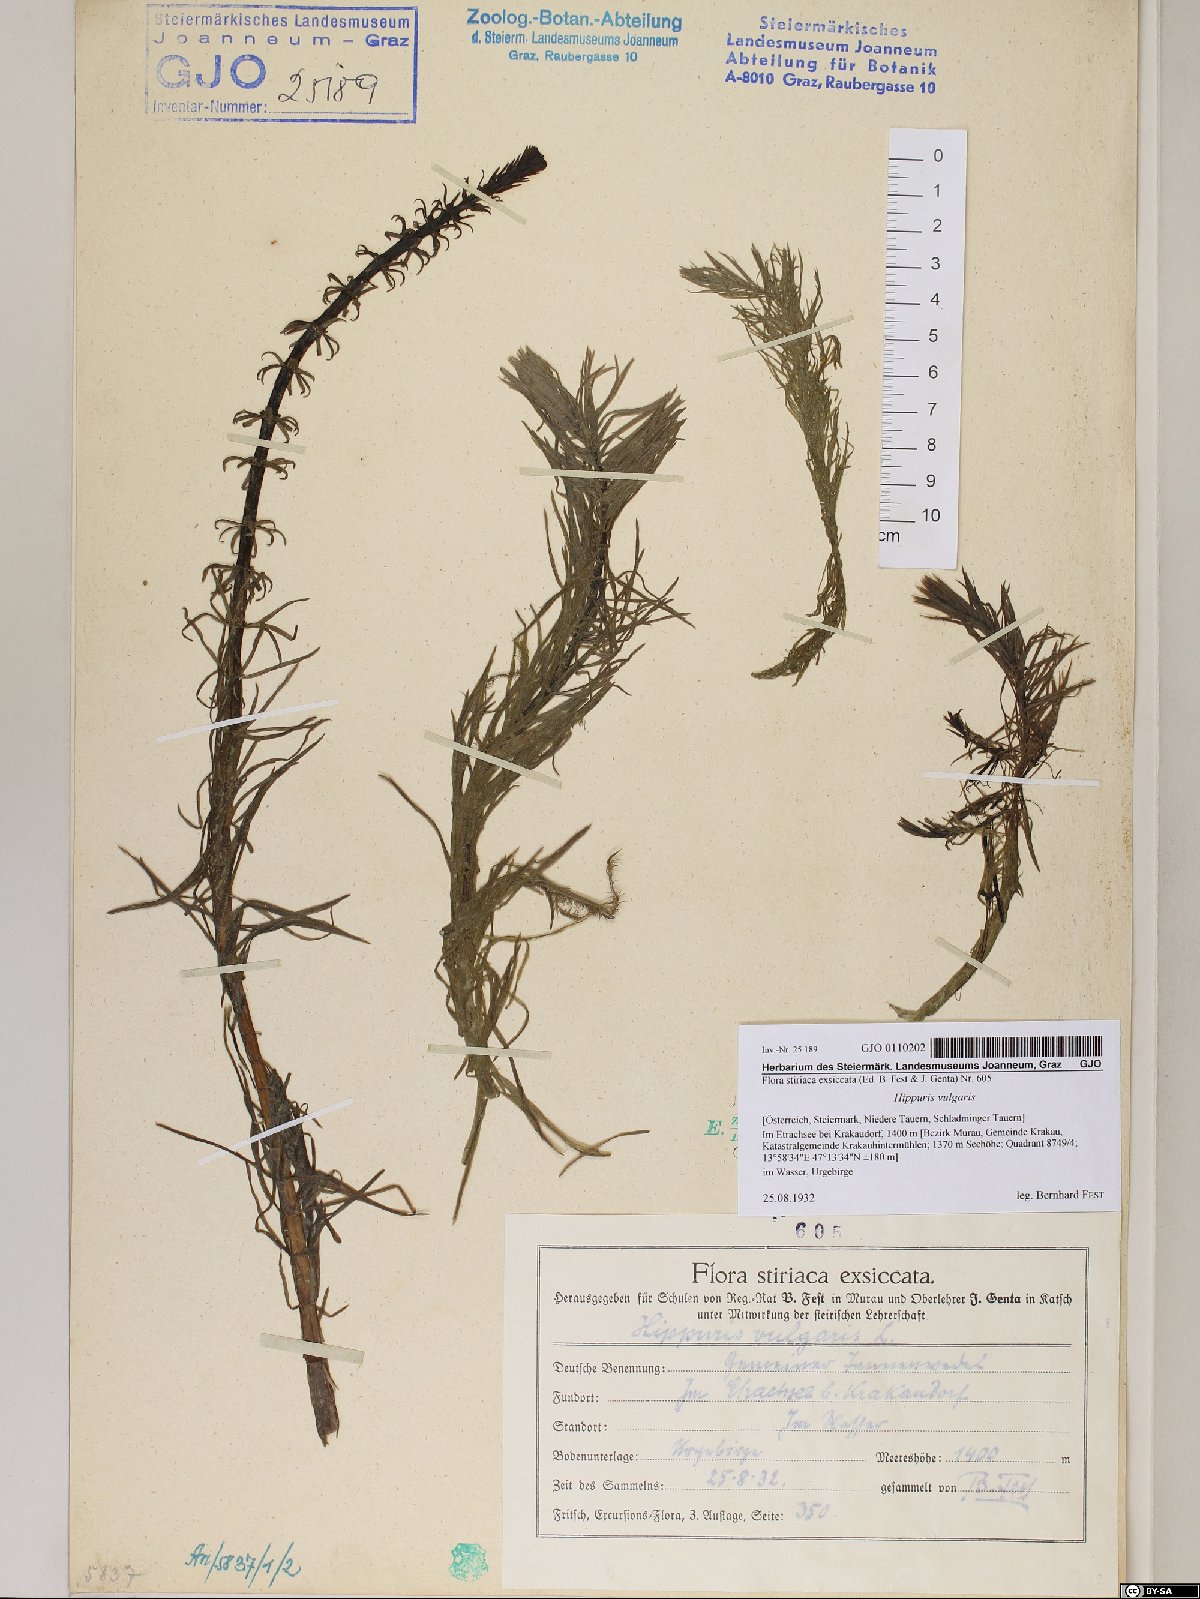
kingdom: Plantae
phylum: Tracheophyta
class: Magnoliopsida
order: Lamiales
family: Plantaginaceae
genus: Hippuris
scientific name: Hippuris vulgaris
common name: Mare's-tail
